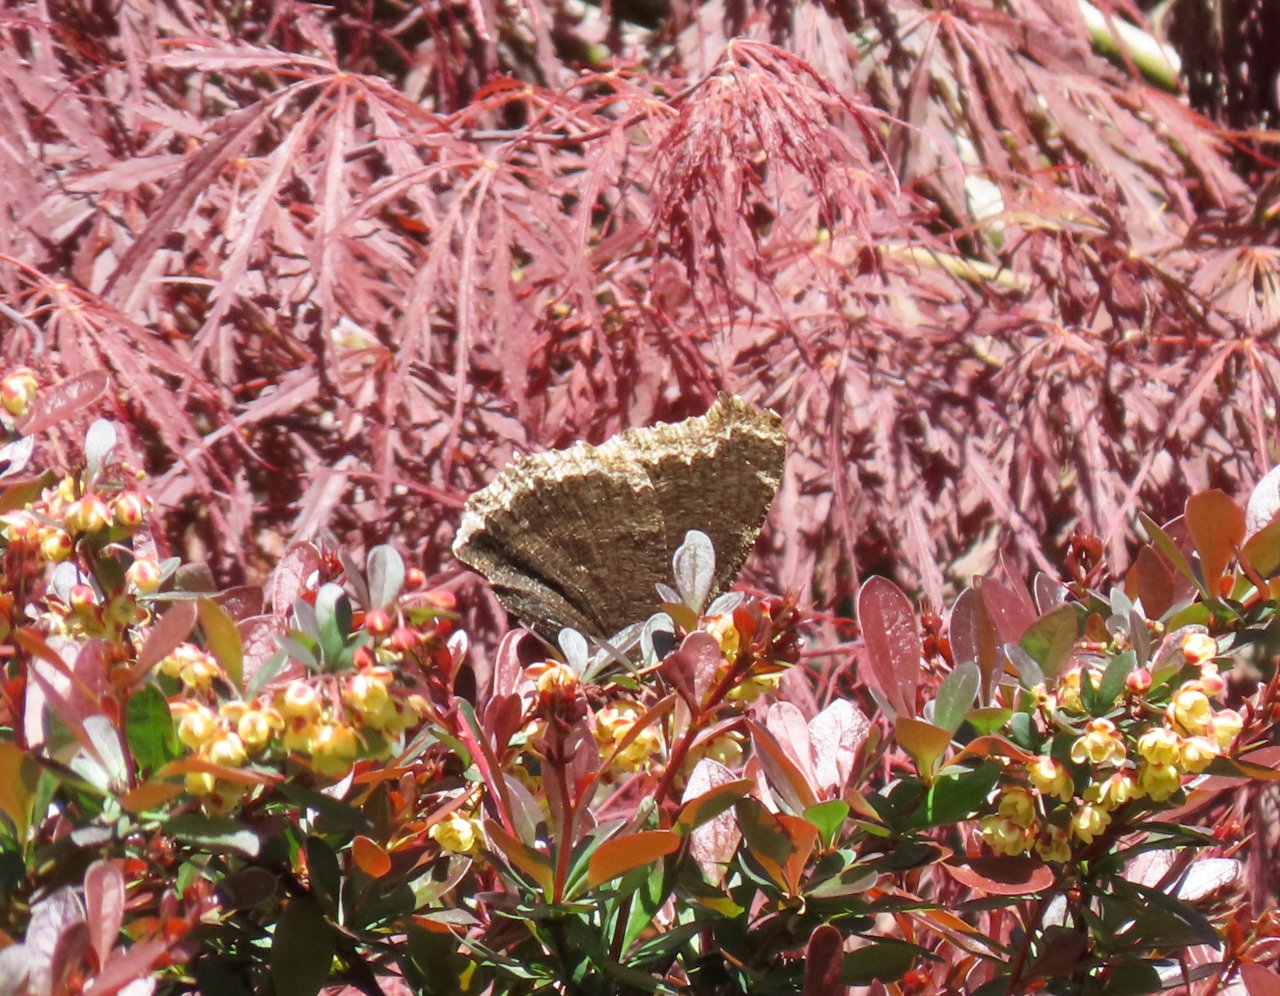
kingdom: Animalia
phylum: Arthropoda
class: Insecta
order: Lepidoptera
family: Nymphalidae
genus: Nymphalis
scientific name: Nymphalis antiopa
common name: Mourning Cloak
